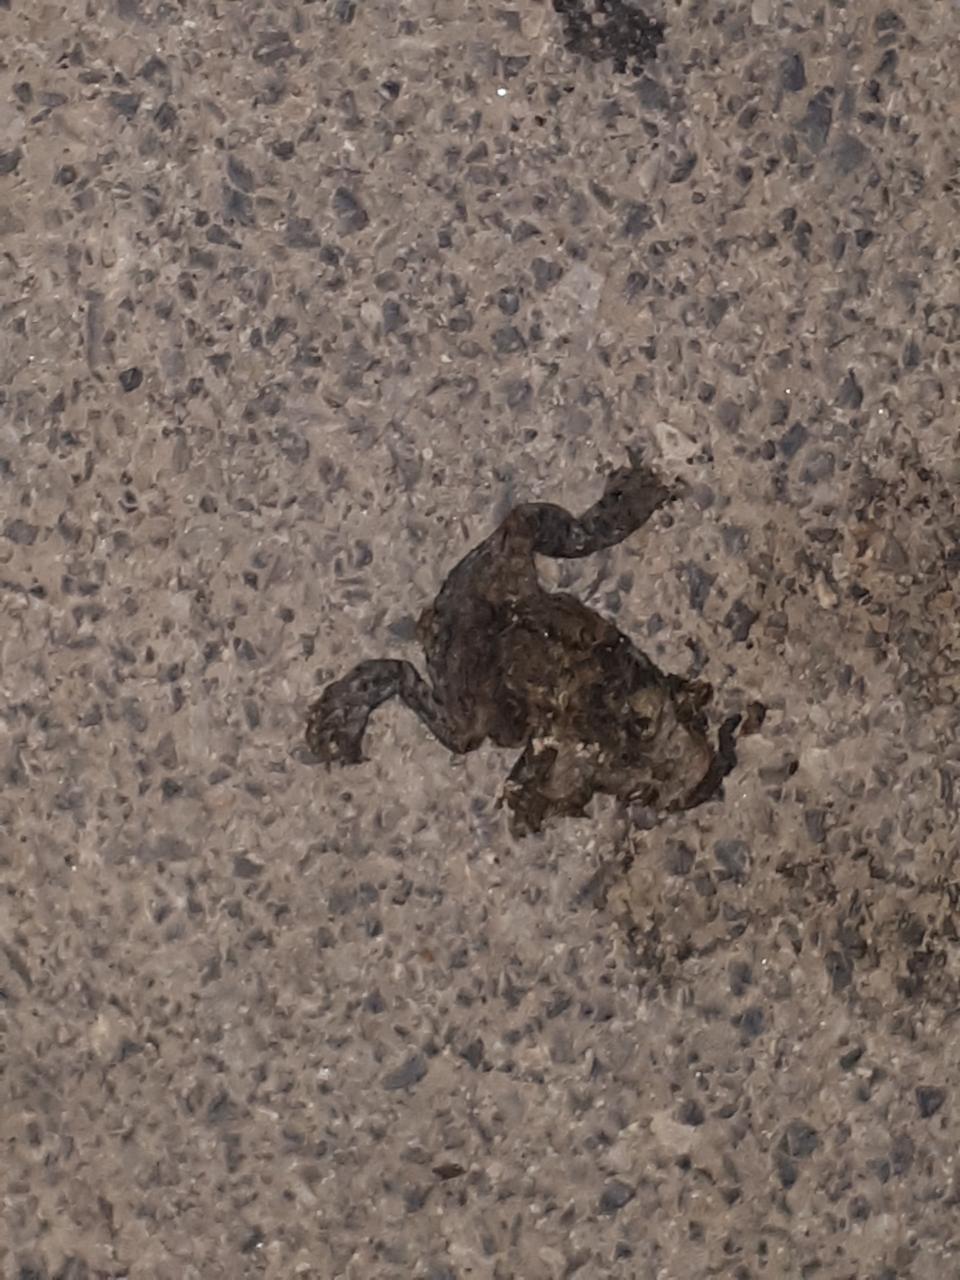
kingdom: Animalia
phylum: Chordata
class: Amphibia
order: Anura
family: Bufonidae
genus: Bufotes
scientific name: Bufotes viridis
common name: European green toad
